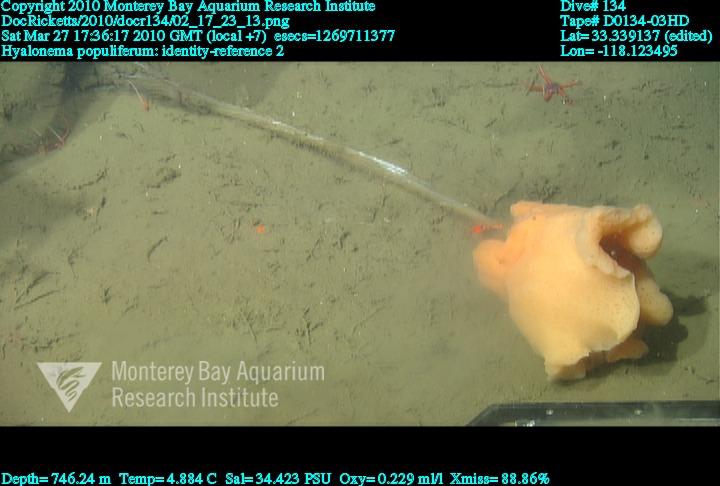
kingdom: Animalia
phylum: Porifera
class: Hexactinellida
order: Amphidiscosida
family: Hyalonematidae
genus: Hyalonema
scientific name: Hyalonema populiferum
